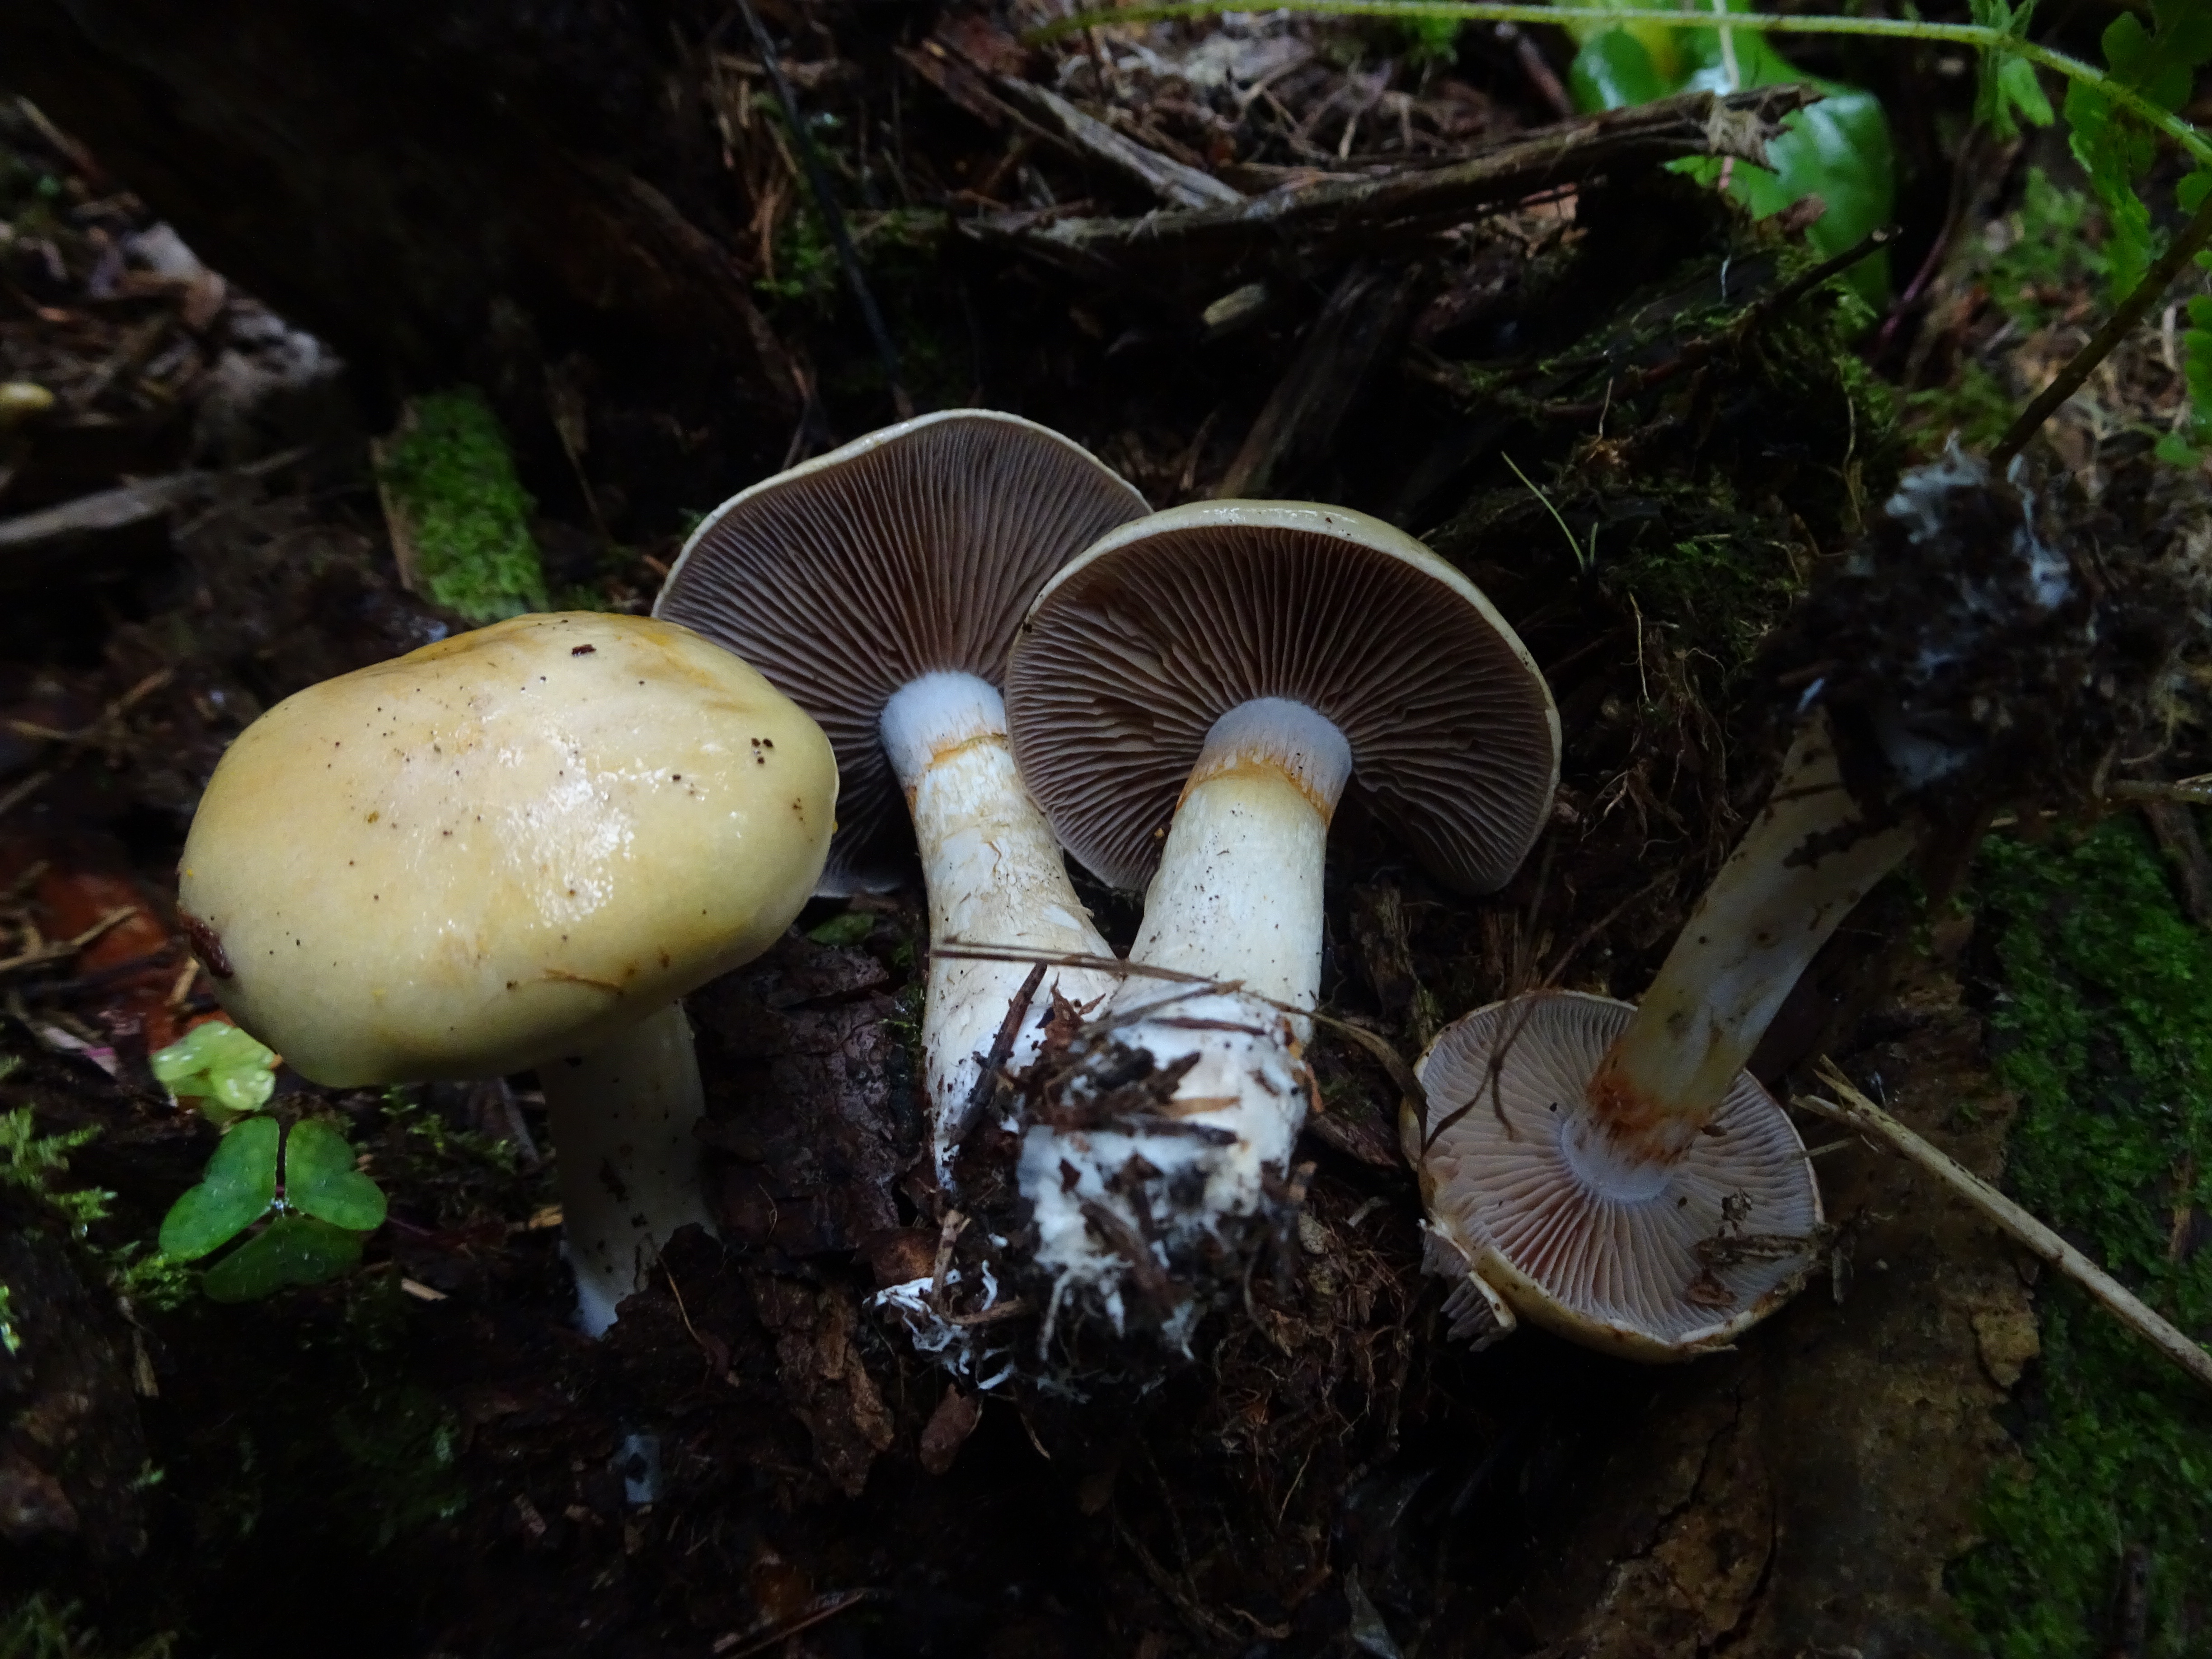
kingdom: Fungi
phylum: Basidiomycota
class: Agaricomycetes
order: Agaricales
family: Cortinariaceae
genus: Cortinarius
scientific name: Cortinarius varius
